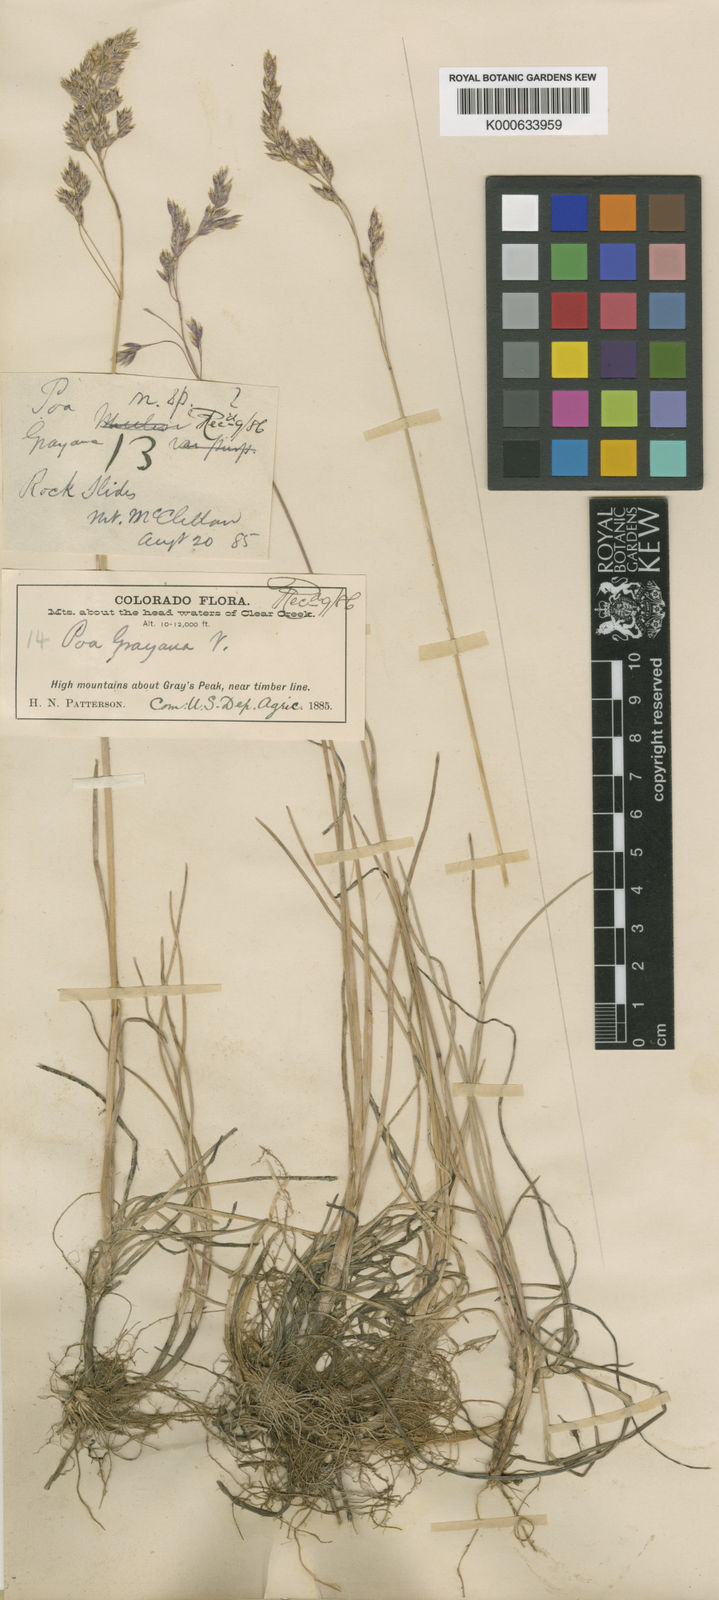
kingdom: Plantae
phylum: Tracheophyta
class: Liliopsida
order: Poales
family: Poaceae
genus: Poa
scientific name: Poa arctica
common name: Arctic bluegrass
